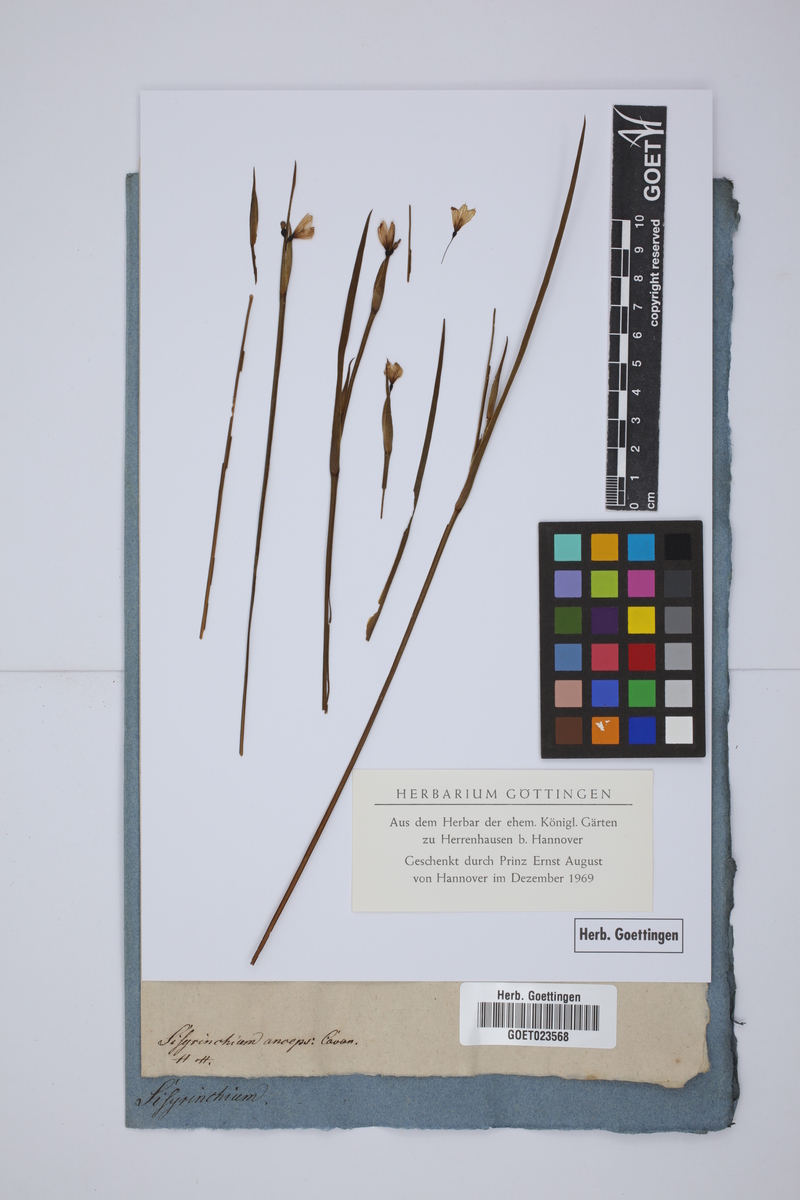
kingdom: Plantae
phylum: Tracheophyta
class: Liliopsida
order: Asparagales
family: Iridaceae
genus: Sisyrinchium
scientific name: Sisyrinchium angustifolium
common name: Narrow-leaf blue-eyed-grass
